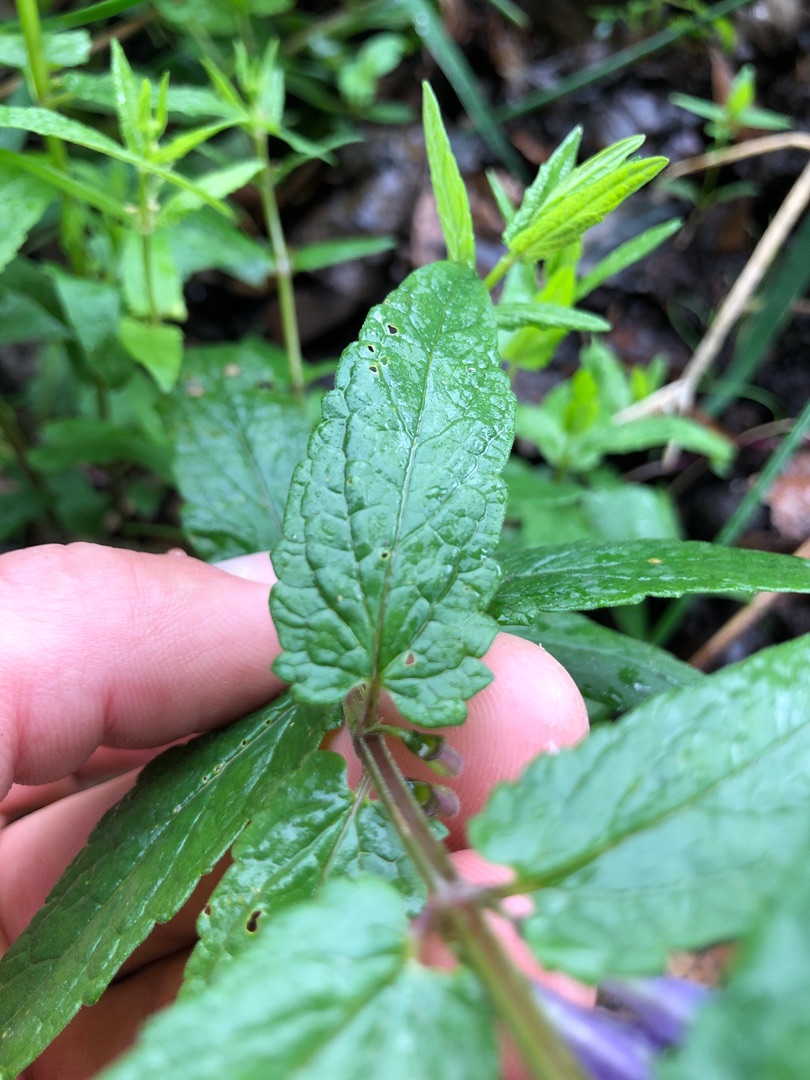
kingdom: Plantae
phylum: Tracheophyta
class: Magnoliopsida
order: Lamiales
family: Lamiaceae
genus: Scutellaria
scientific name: Scutellaria galericulata
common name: Almindelig skjolddrager
